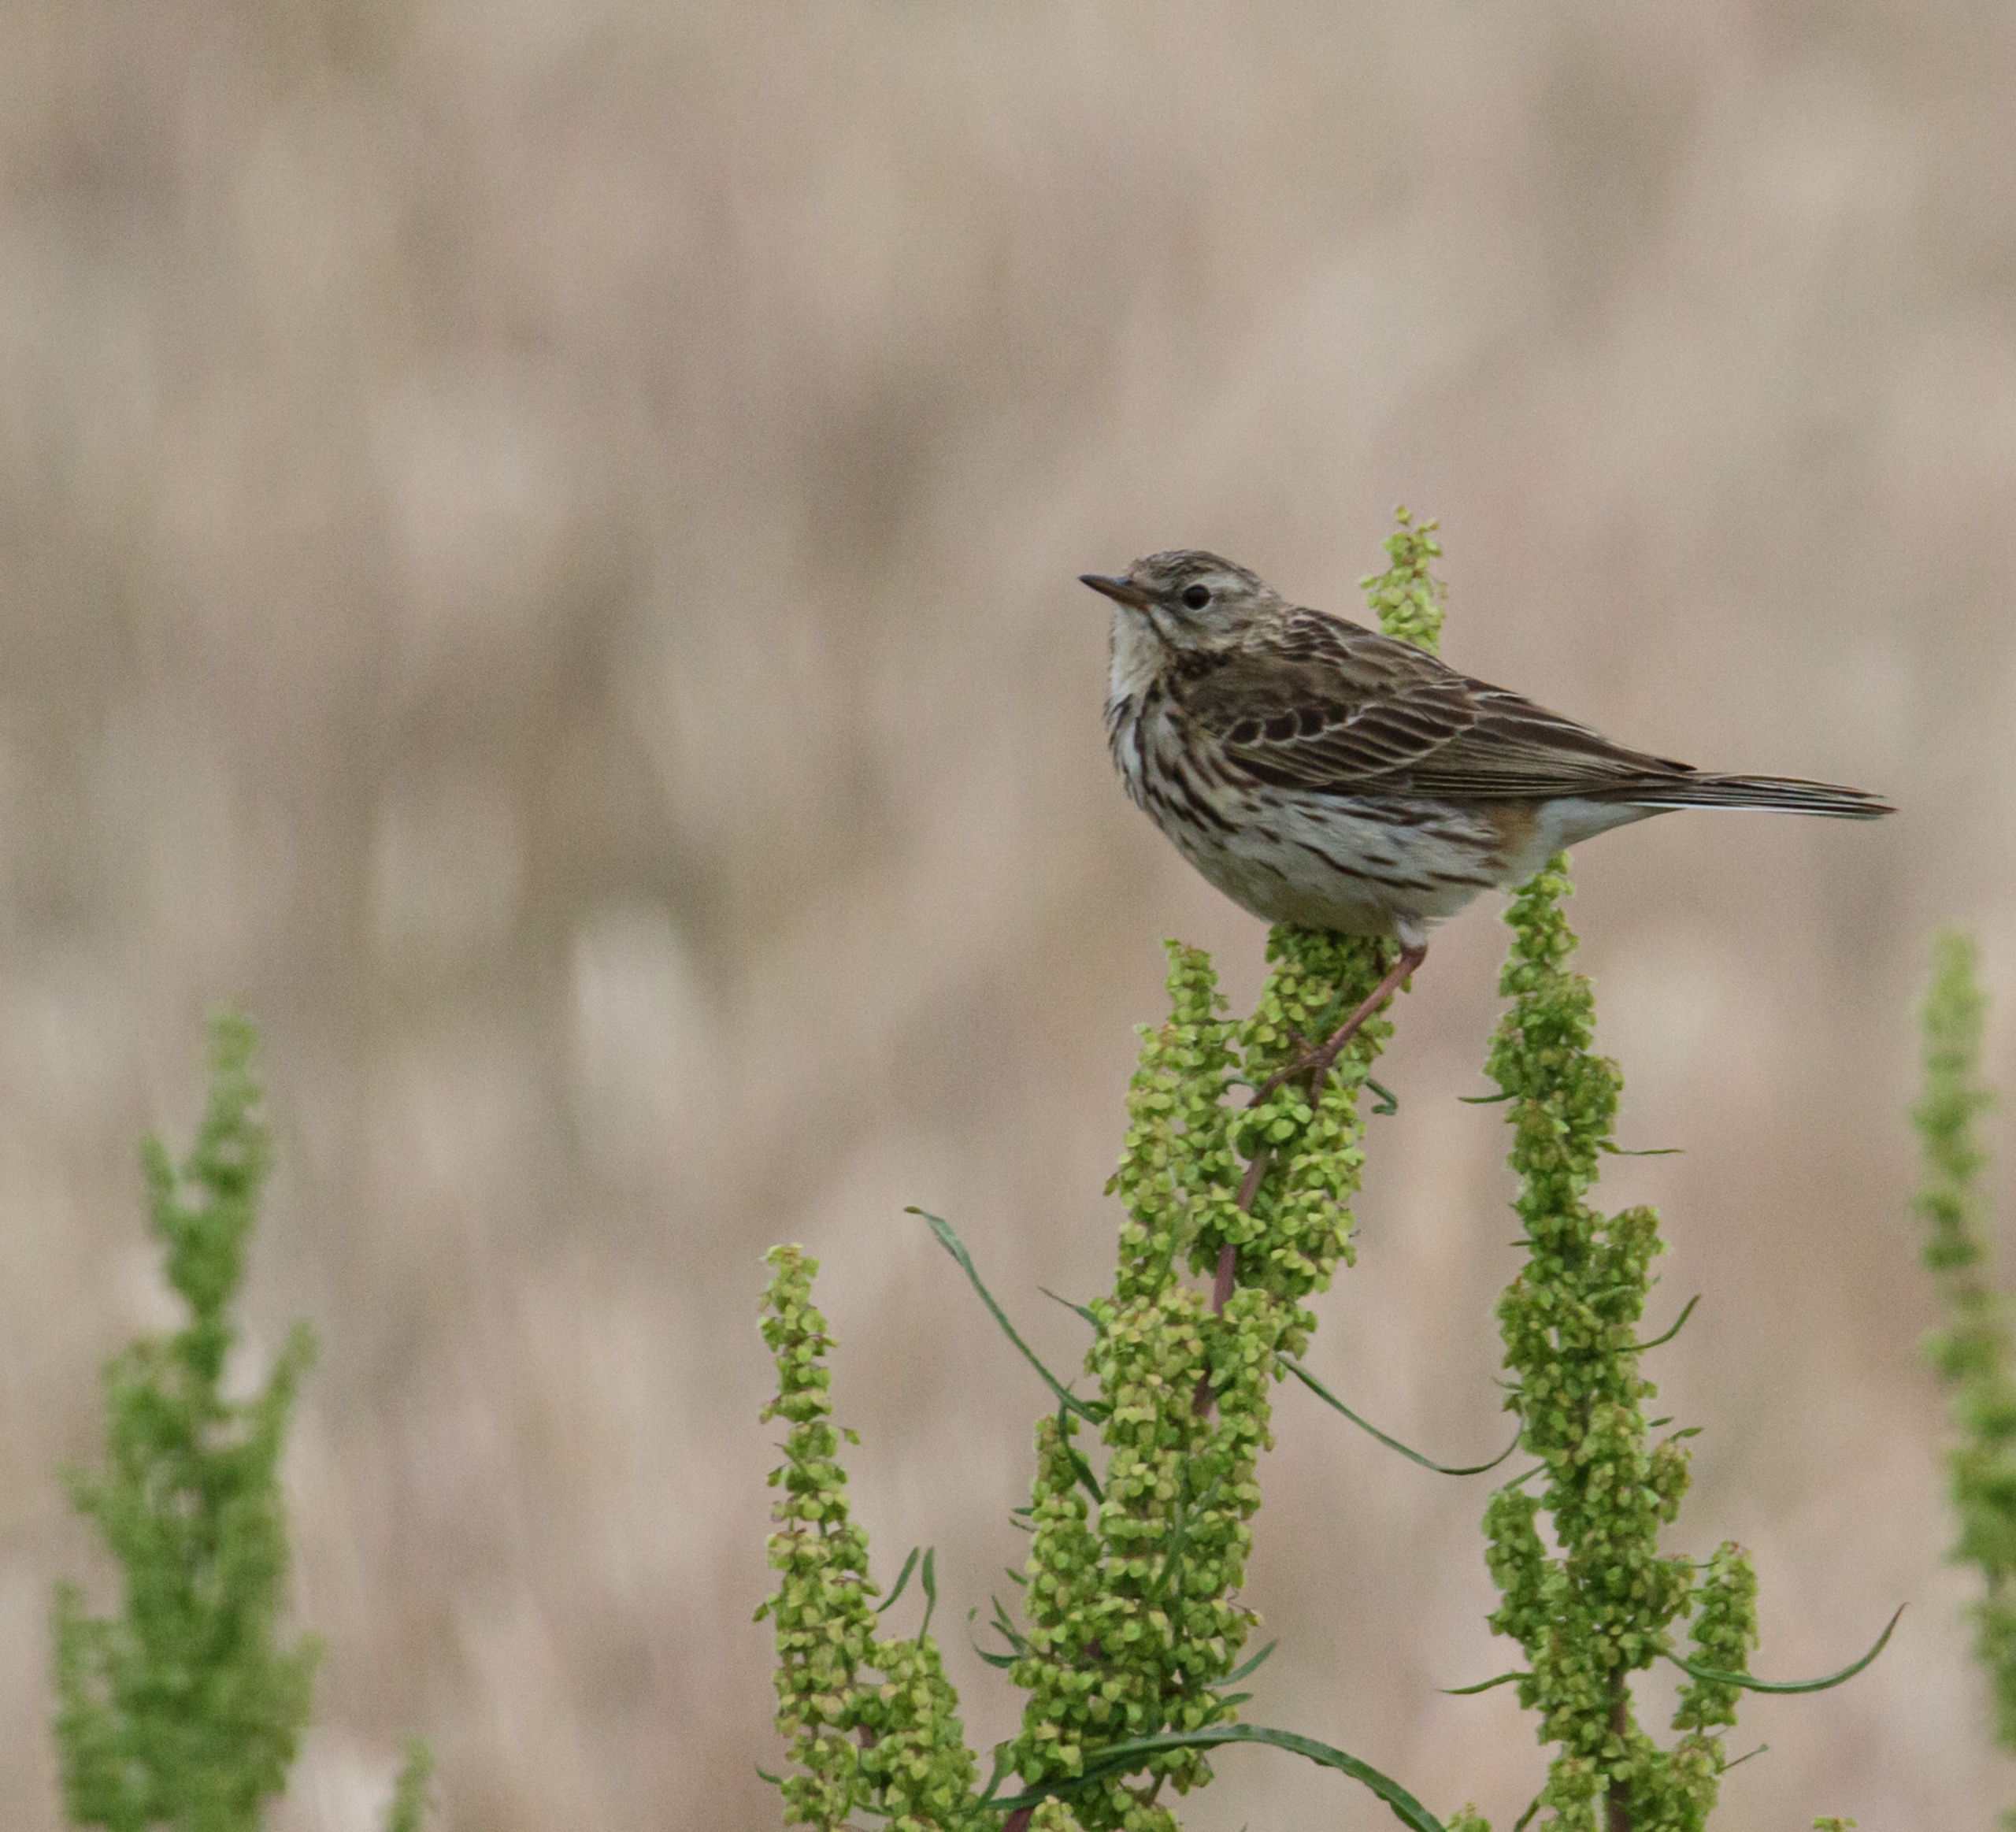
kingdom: Animalia
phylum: Chordata
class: Aves
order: Passeriformes
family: Motacillidae
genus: Anthus
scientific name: Anthus pratensis
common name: Engpiber
